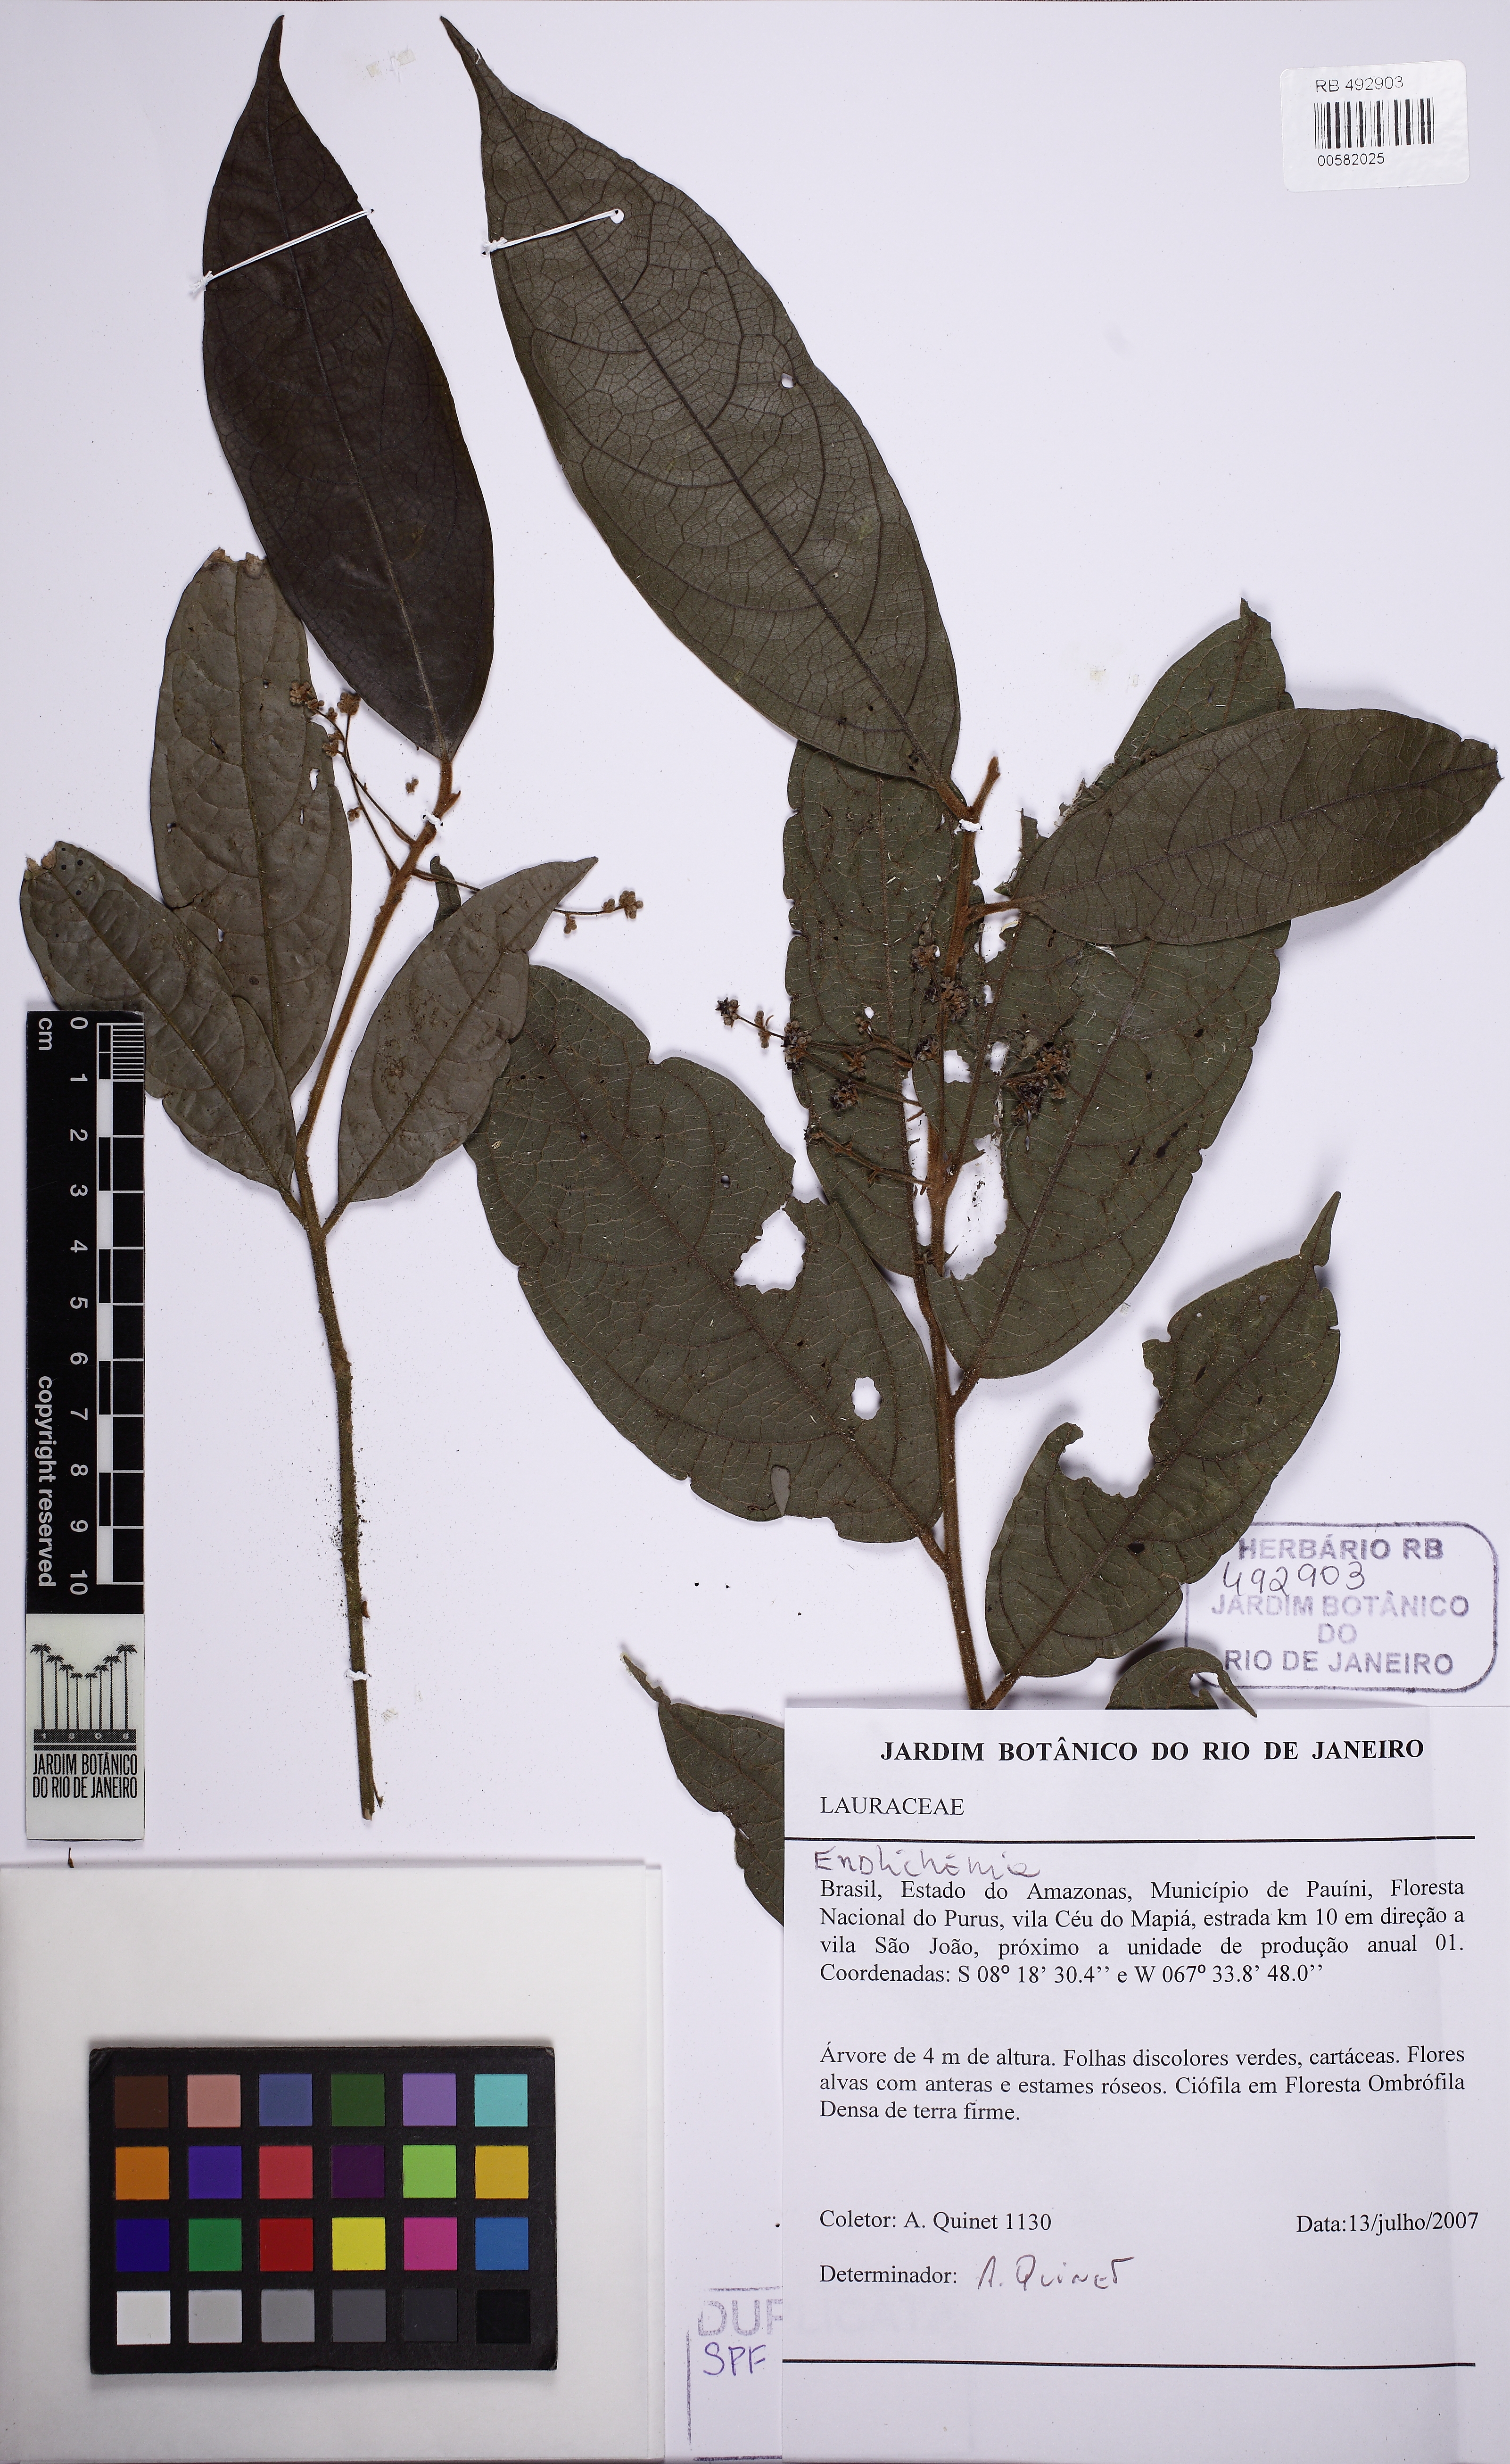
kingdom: Plantae
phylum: Tracheophyta
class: Magnoliopsida
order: Laurales
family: Lauraceae
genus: Endlicheria
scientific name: Endlicheria glomerata
